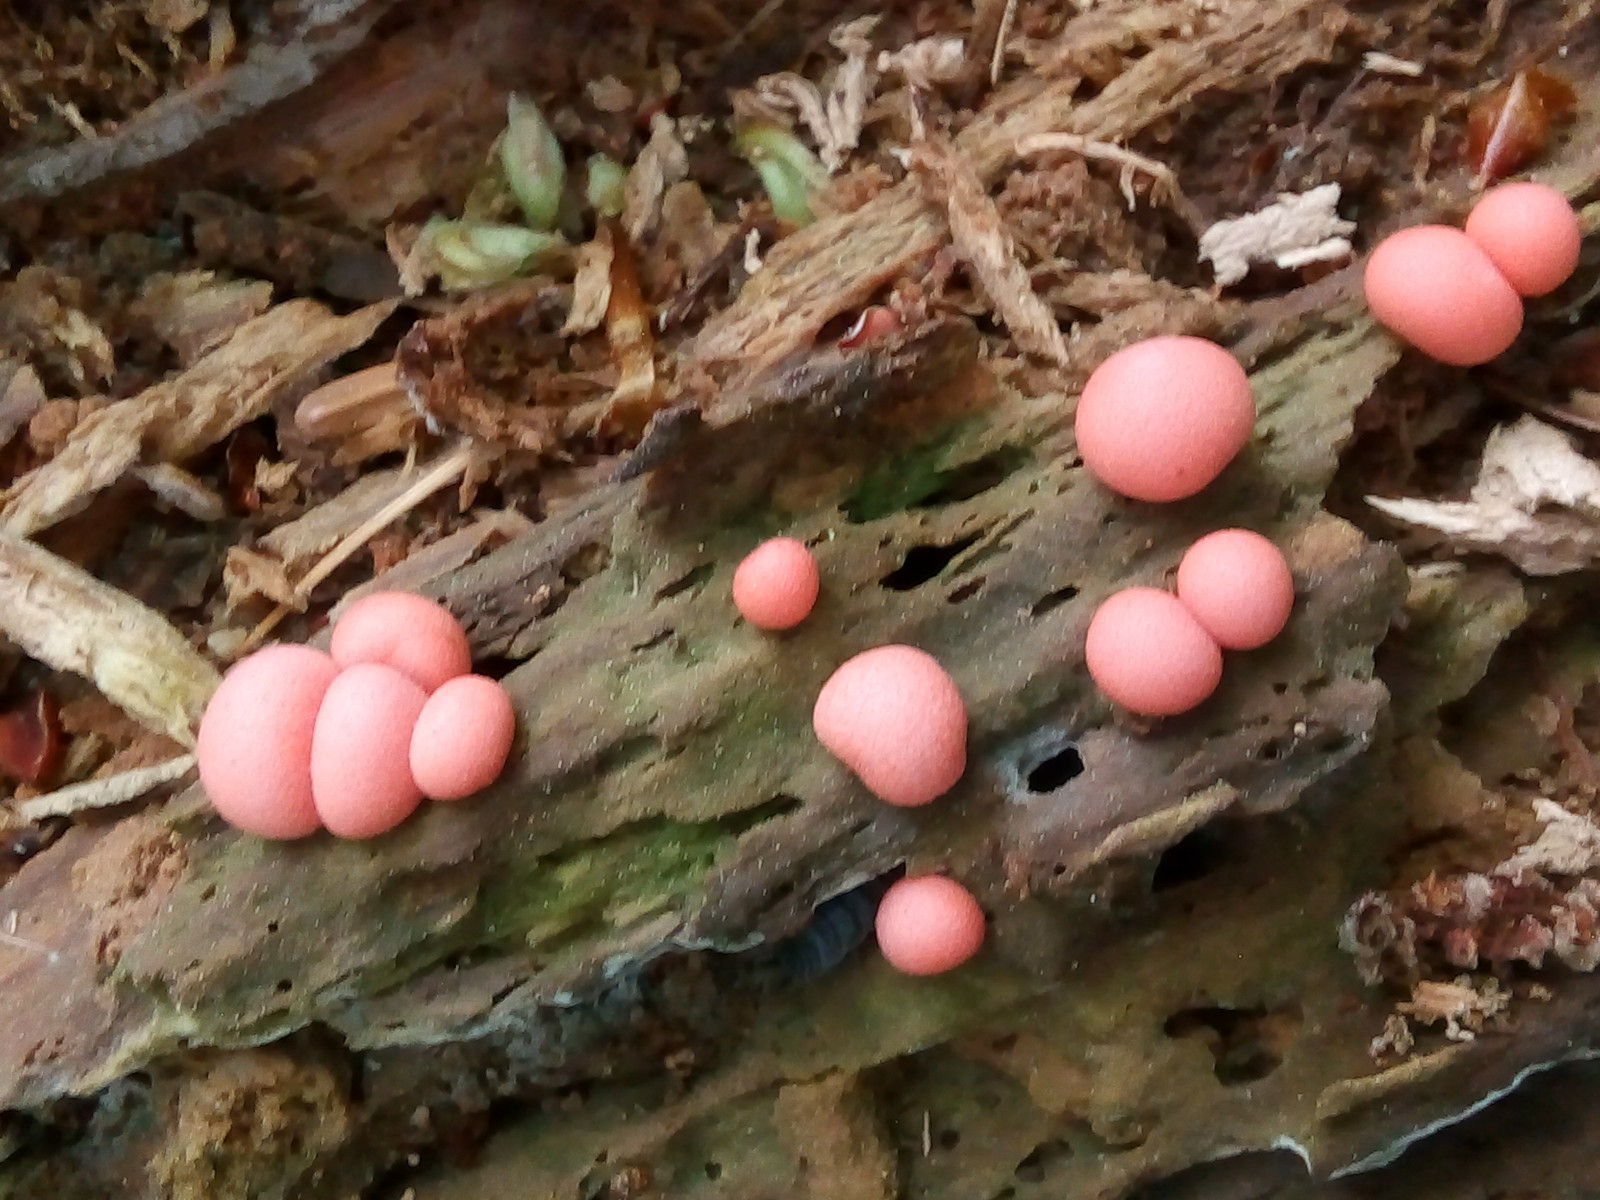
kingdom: Protozoa
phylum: Mycetozoa
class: Myxomycetes
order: Cribrariales
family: Tubiferaceae
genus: Lycogala
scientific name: Lycogala epidendrum
